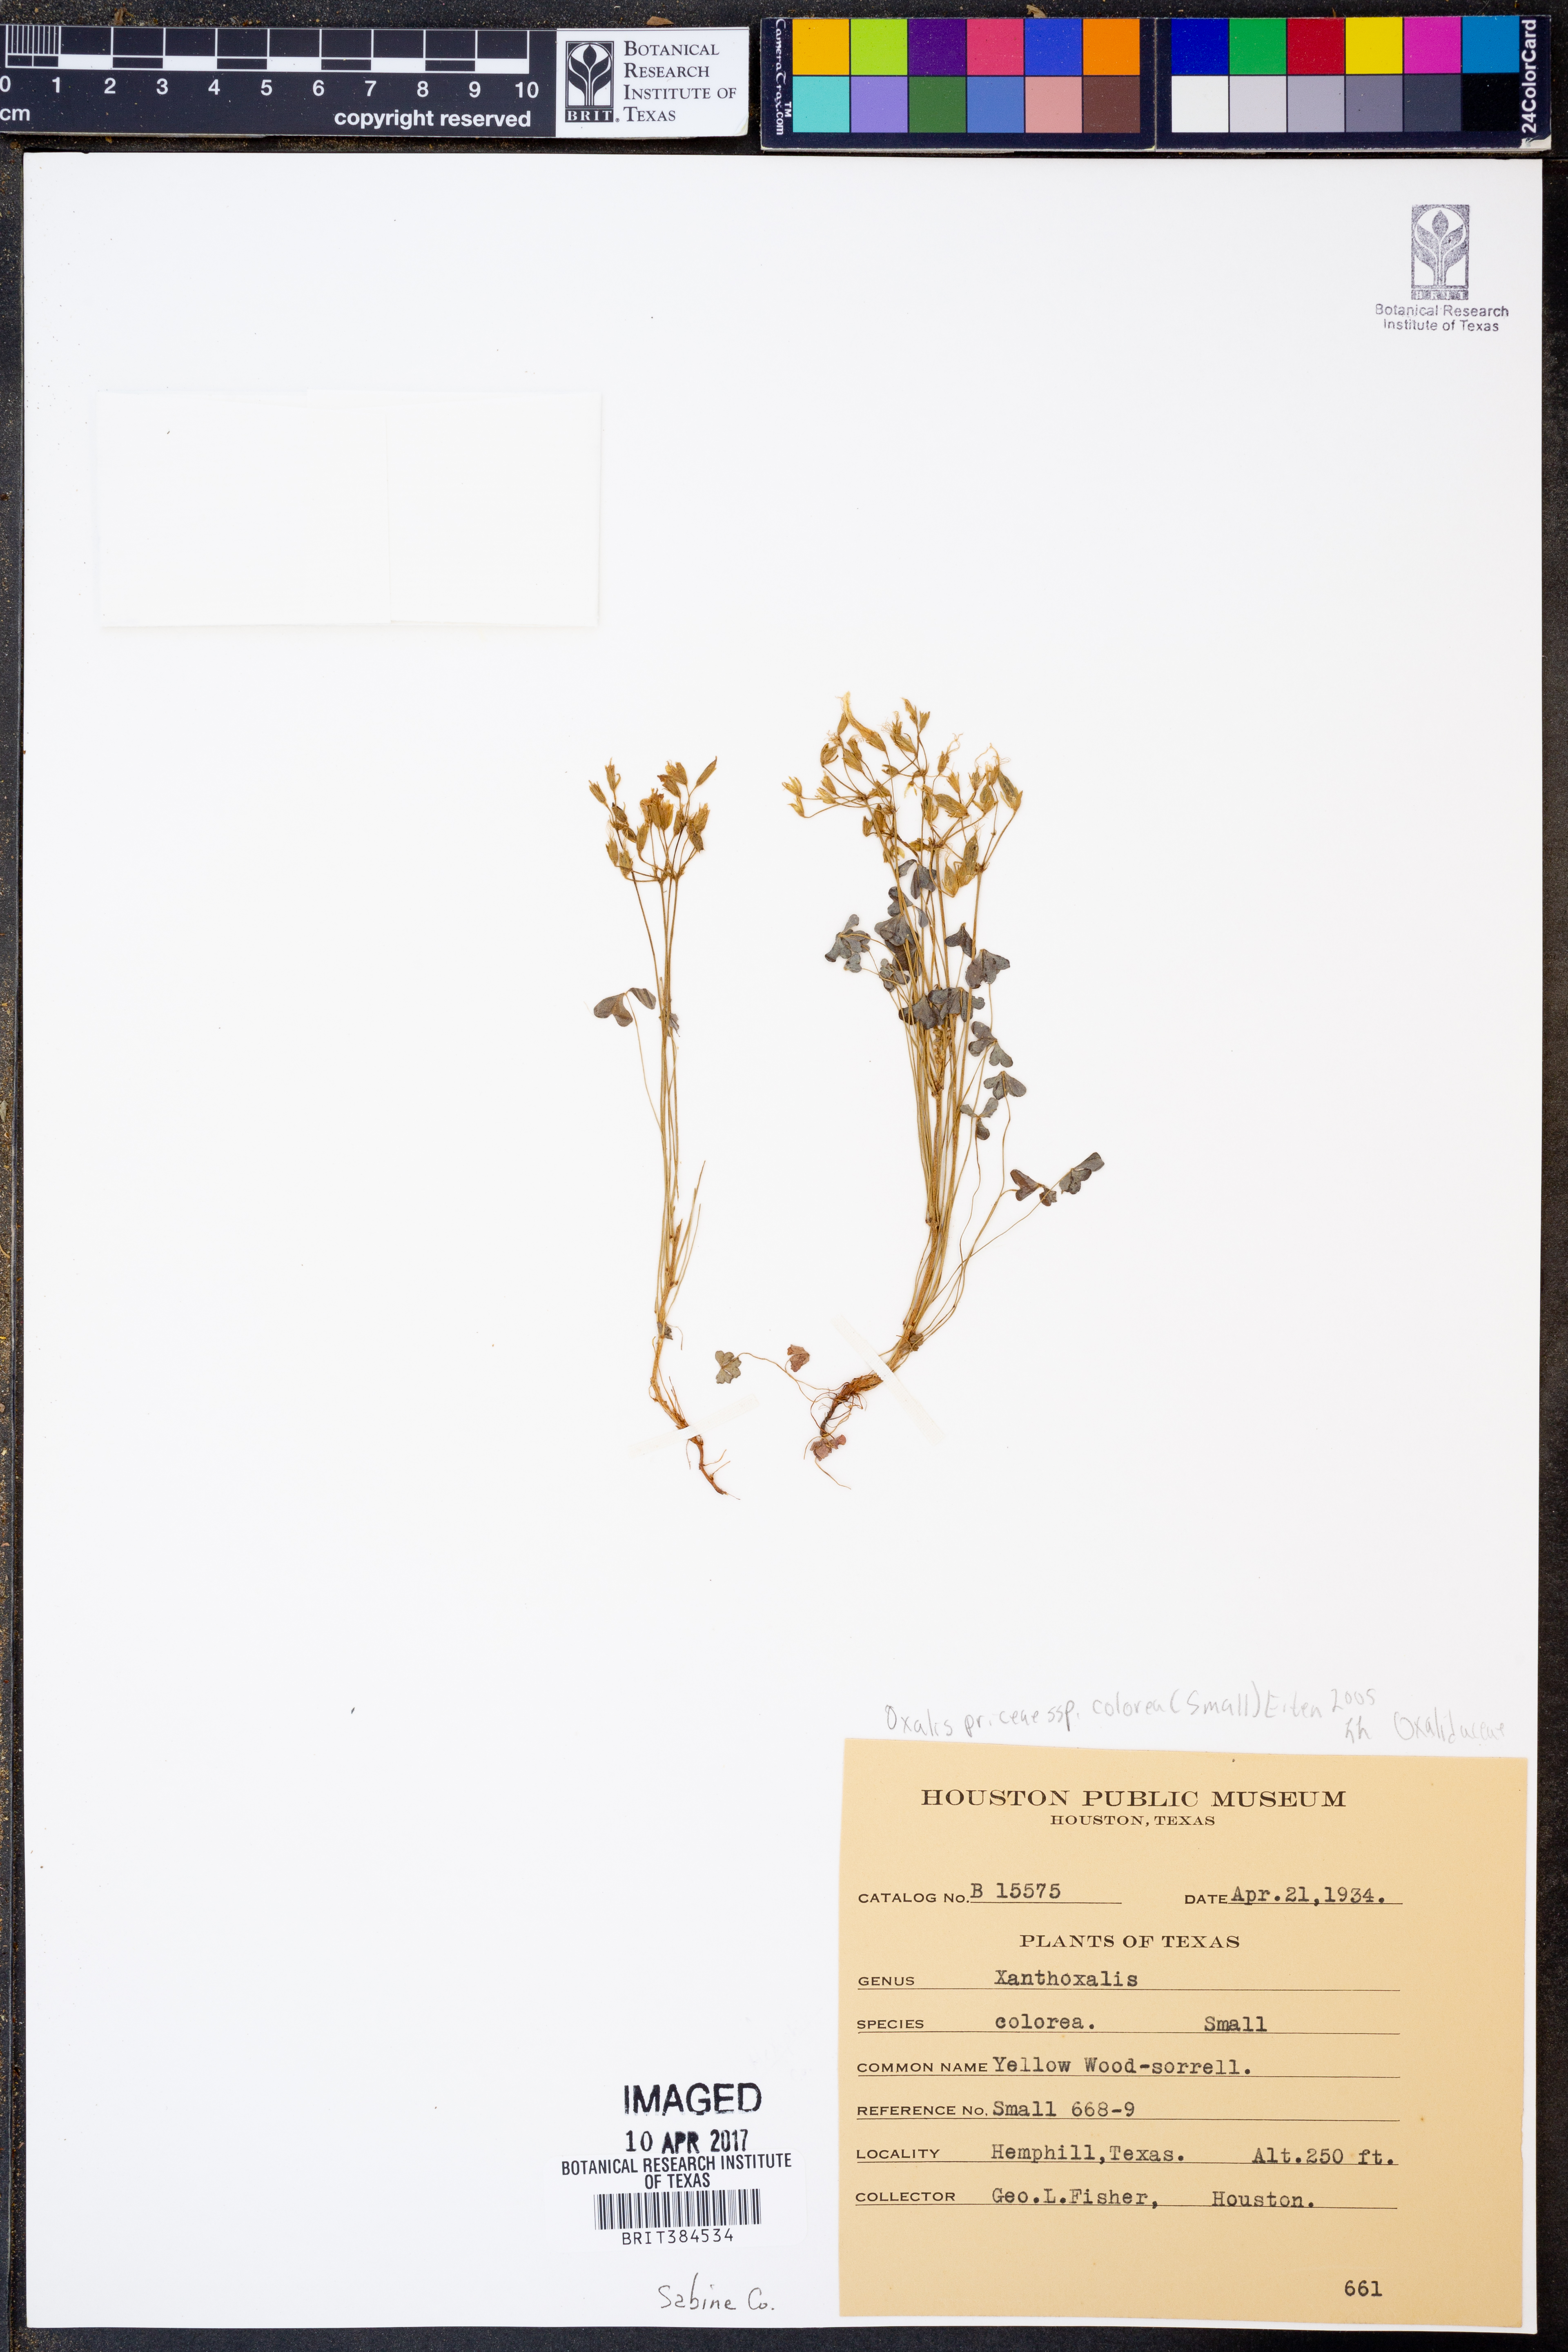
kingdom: Plantae
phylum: Tracheophyta
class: Magnoliopsida
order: Oxalidales
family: Oxalidaceae
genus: Oxalis
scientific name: Oxalis colorea
